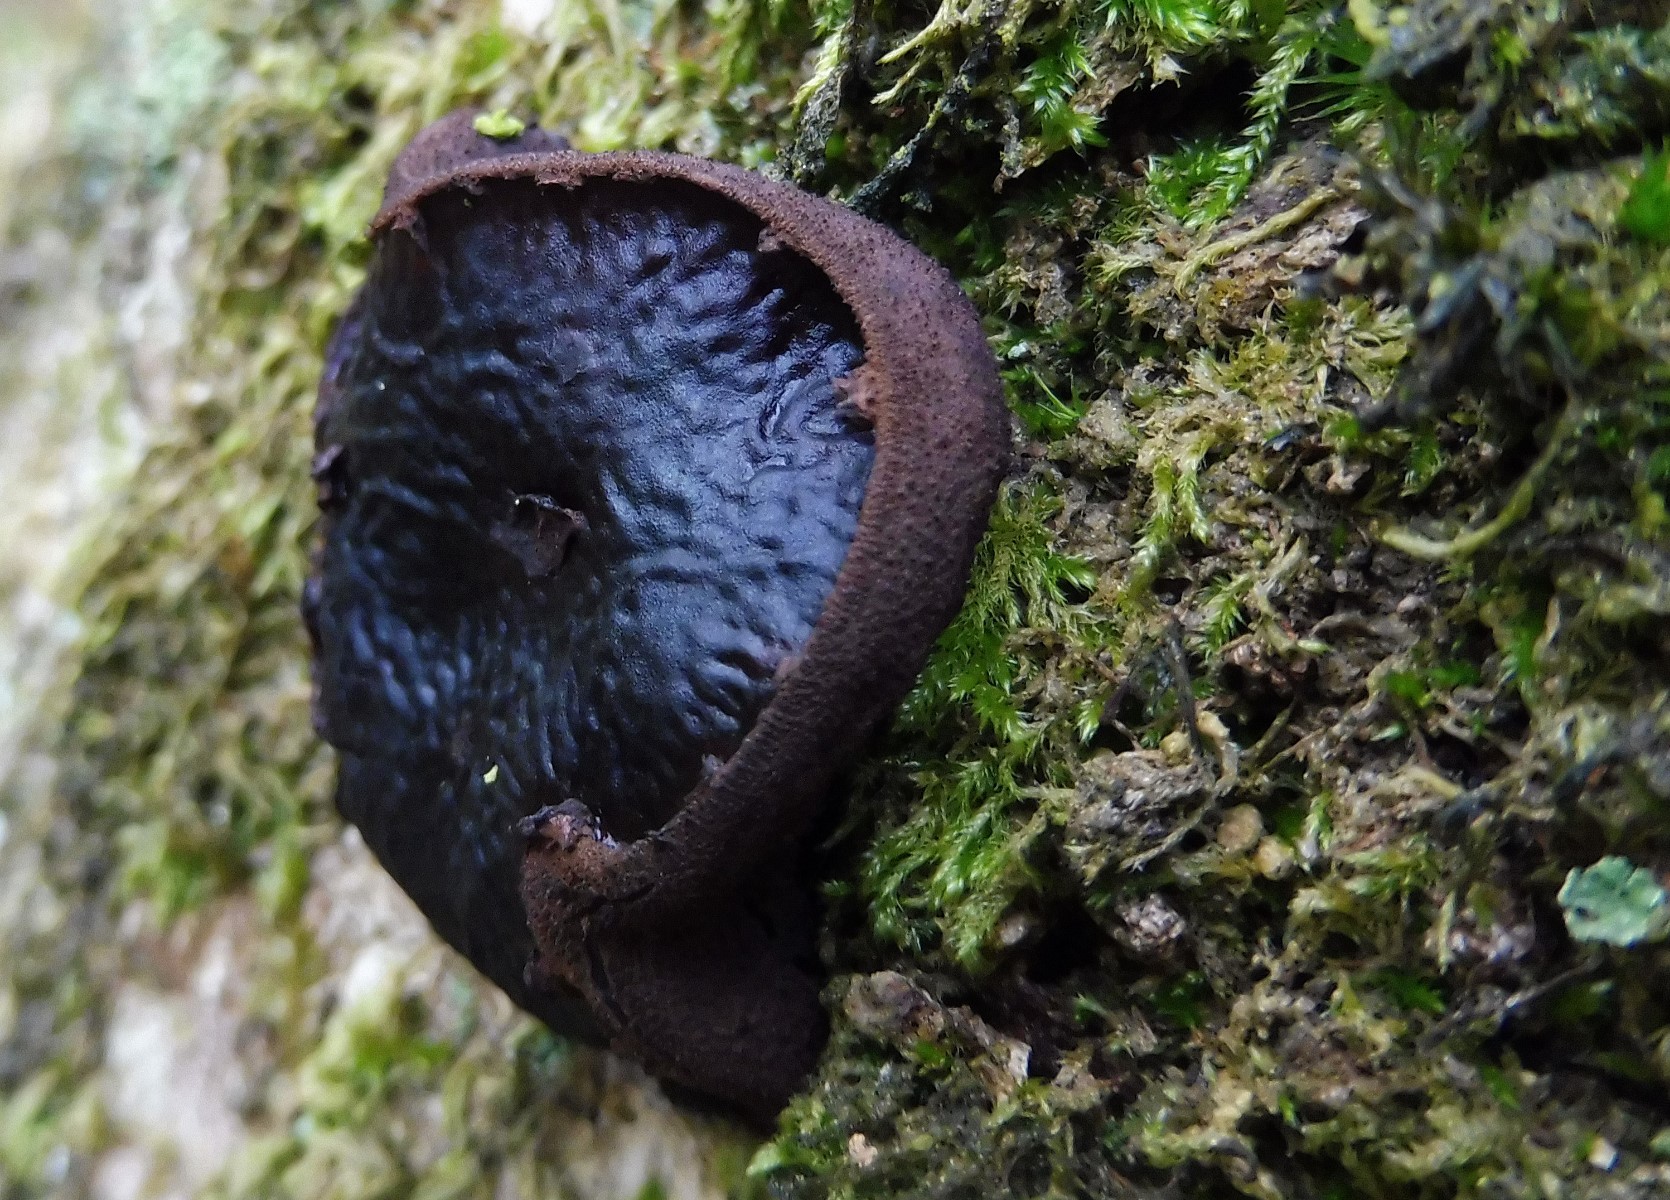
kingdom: Fungi
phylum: Ascomycota
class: Leotiomycetes
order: Phacidiales
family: Phacidiaceae
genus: Bulgaria
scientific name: Bulgaria inquinans
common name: afsmittende topsvamp
